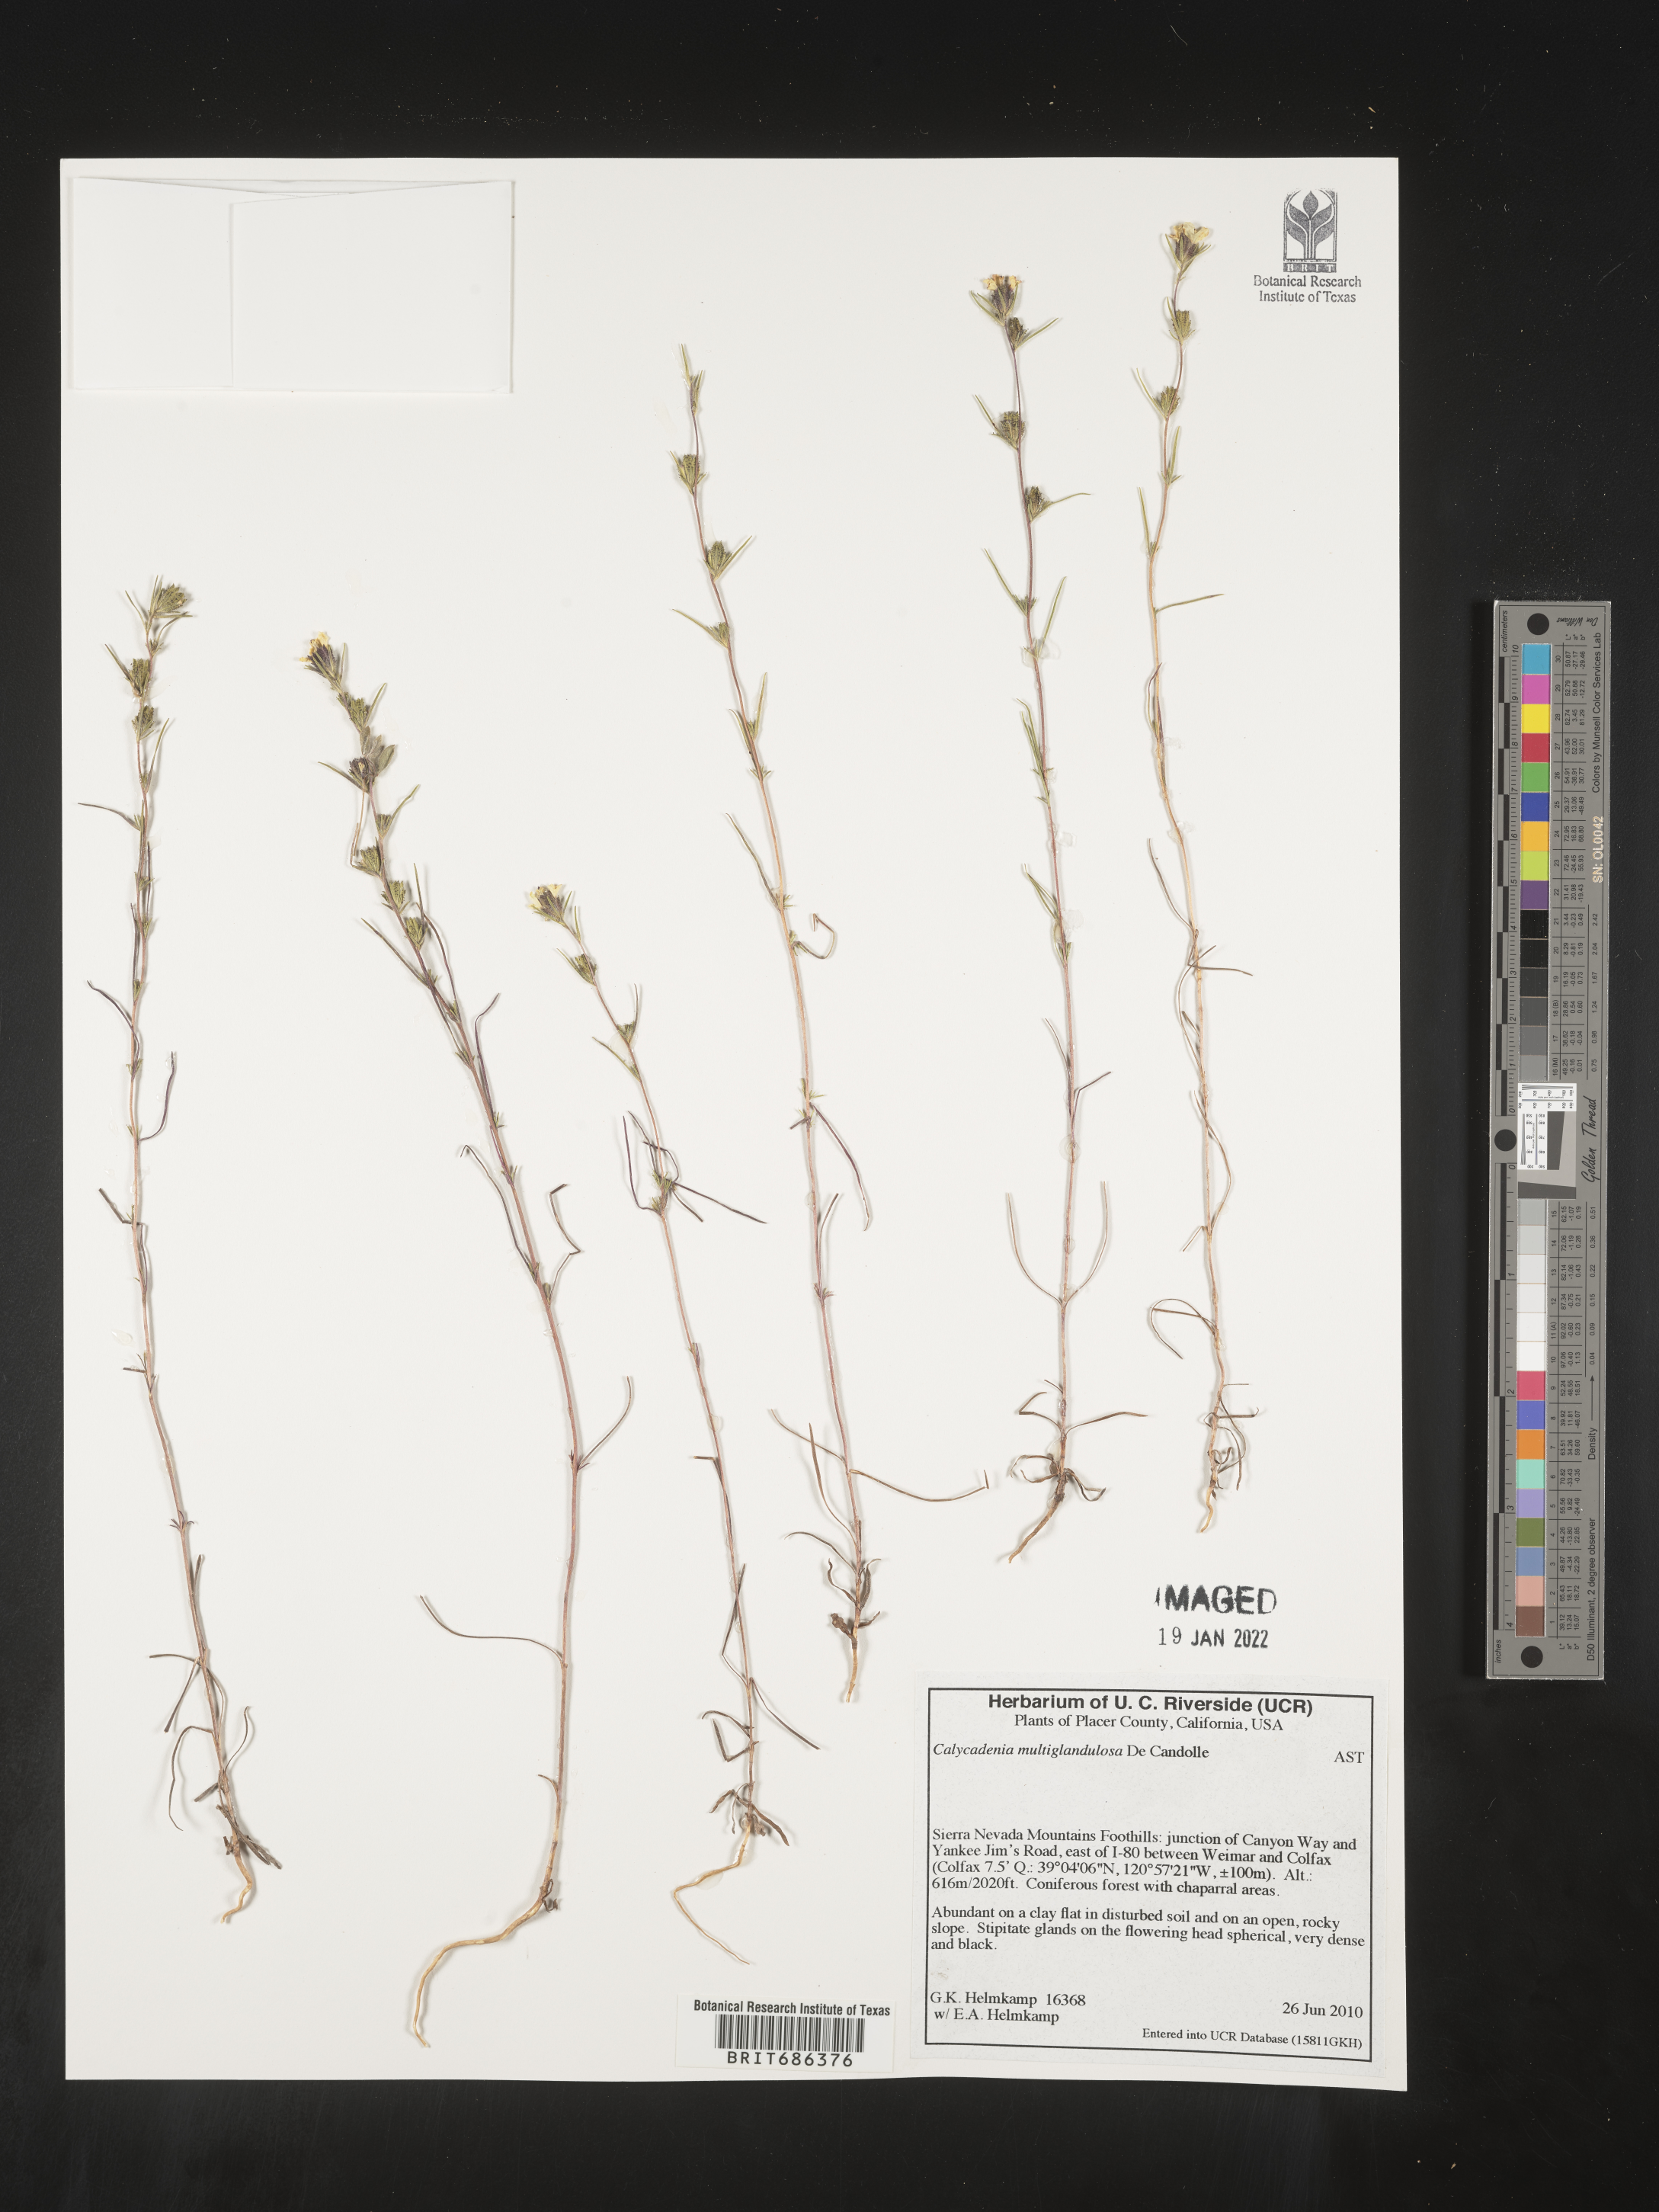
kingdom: Plantae
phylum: Tracheophyta
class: Magnoliopsida
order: Asterales
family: Asteraceae
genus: Calycadenia
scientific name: Calycadenia
